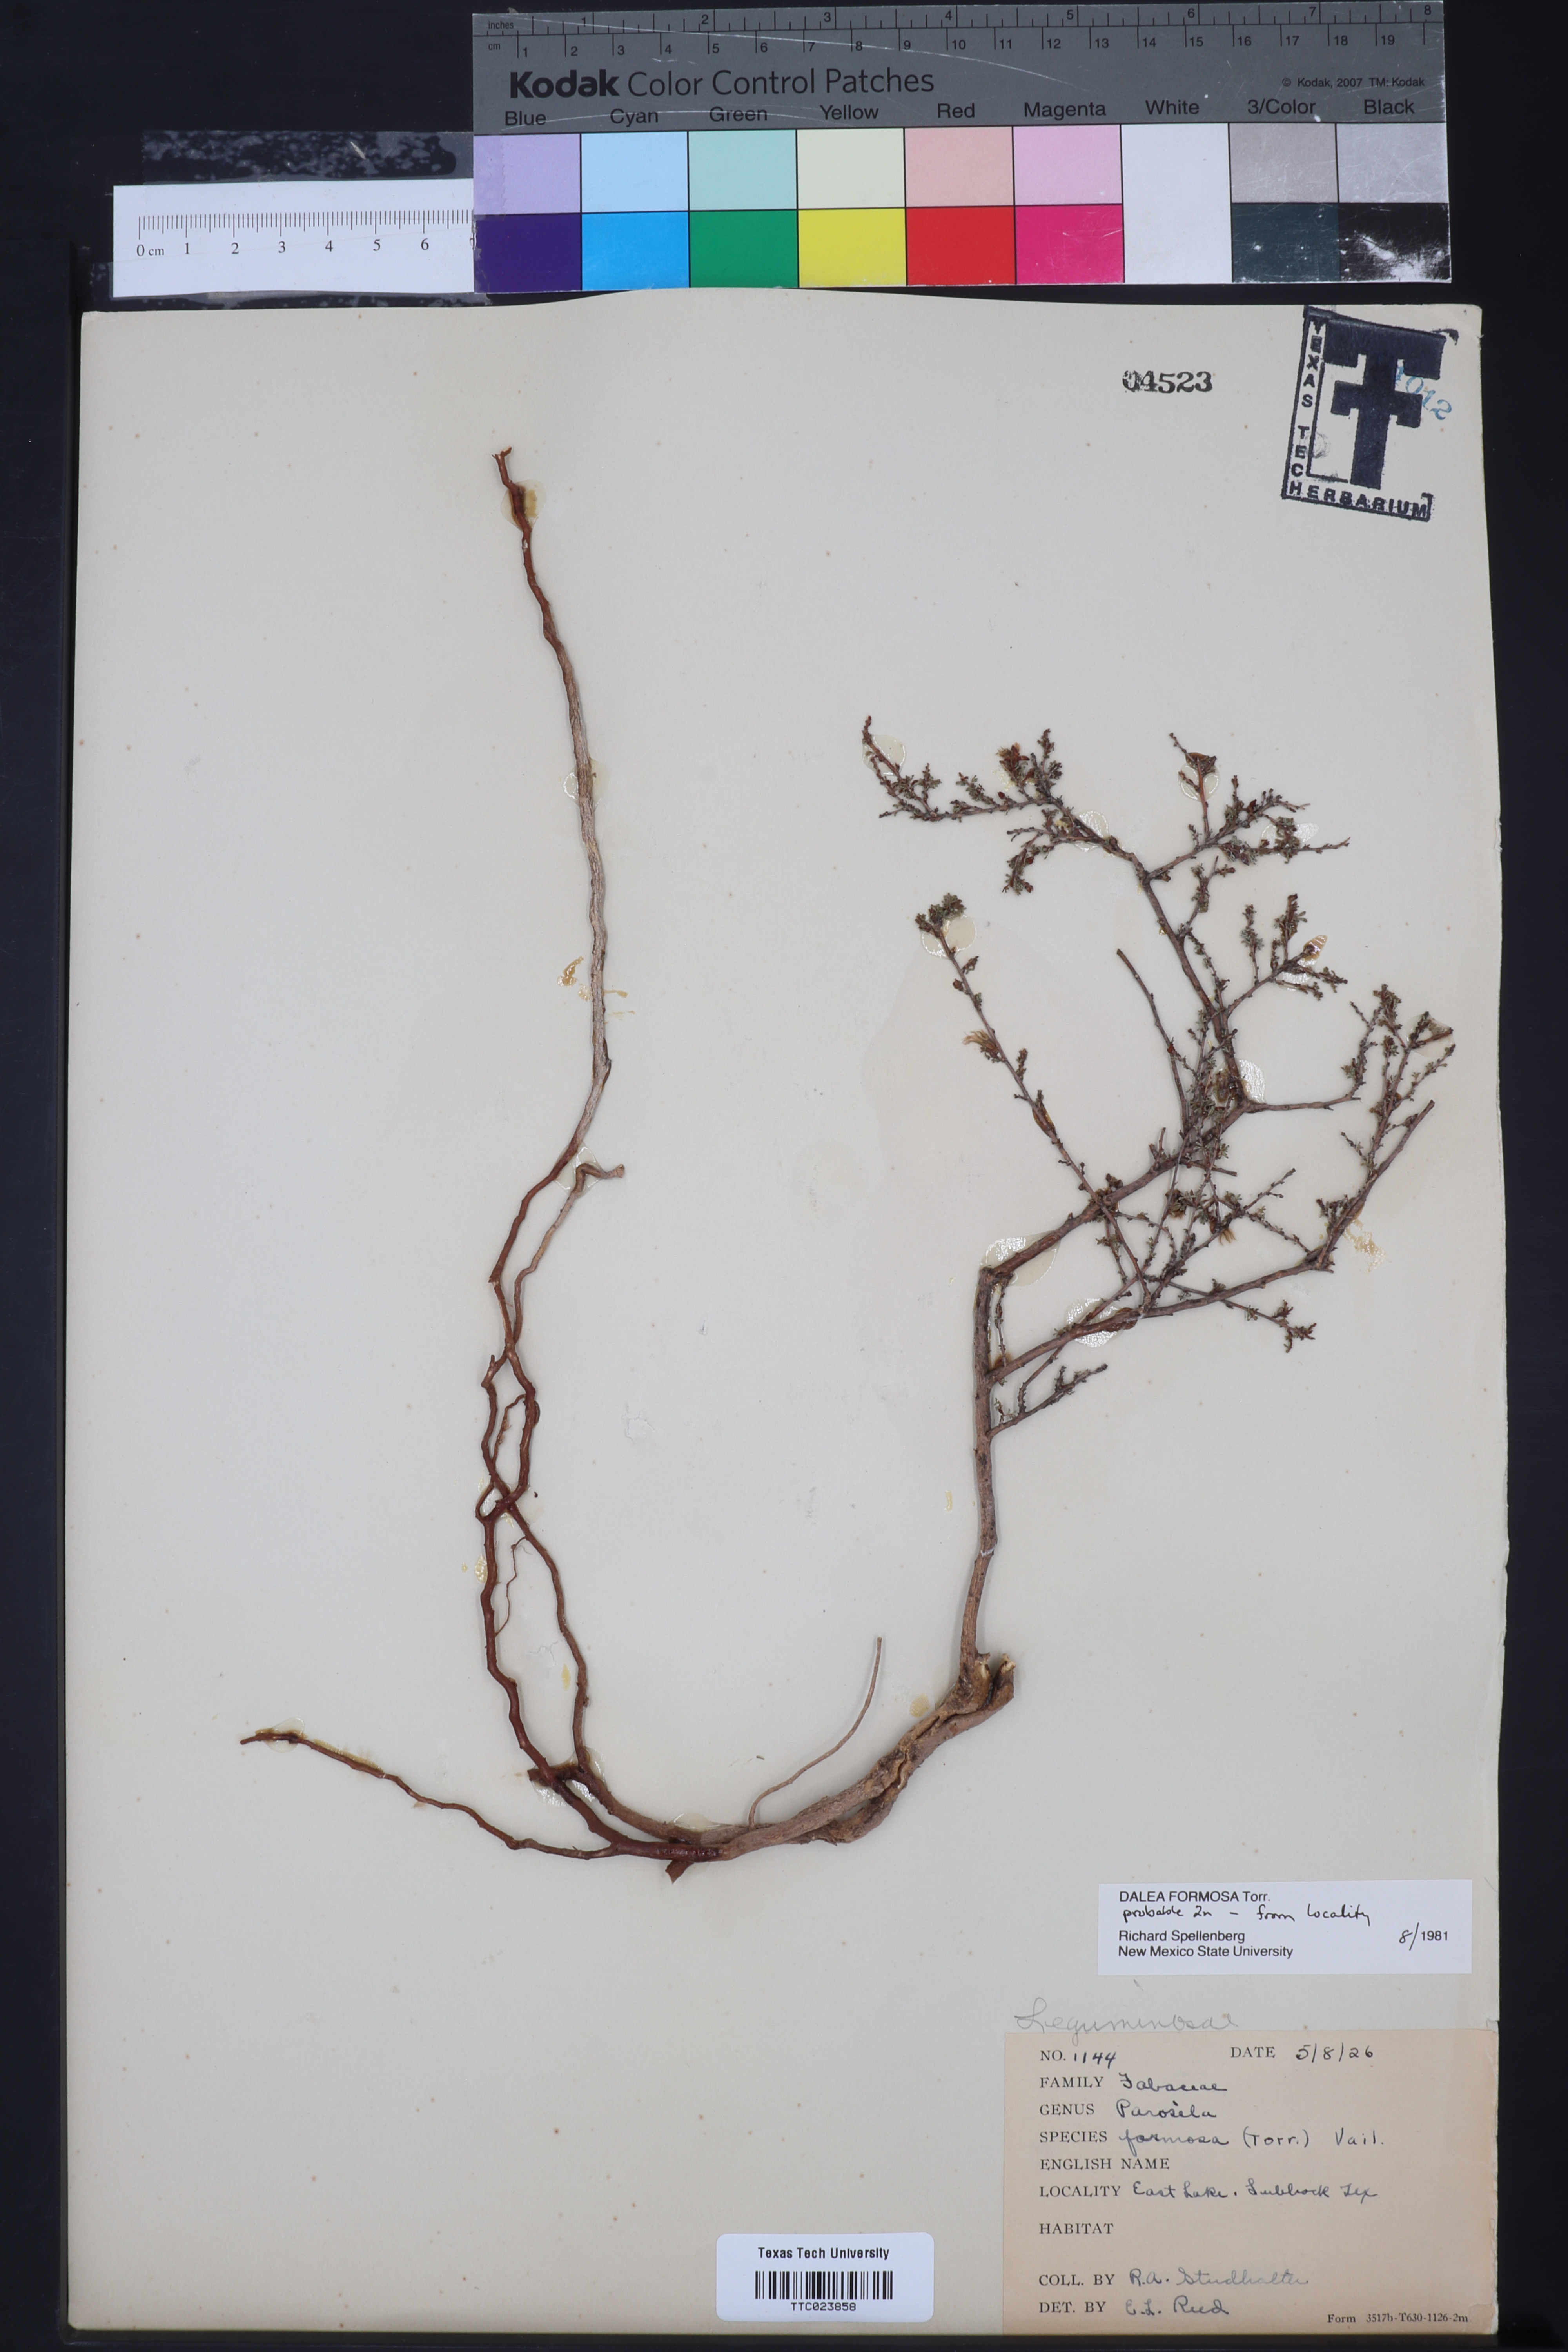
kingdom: Plantae
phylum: Tracheophyta
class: Magnoliopsida
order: Fabales
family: Fabaceae
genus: Dalea
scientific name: Dalea formosa
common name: Feather-plume dalea
